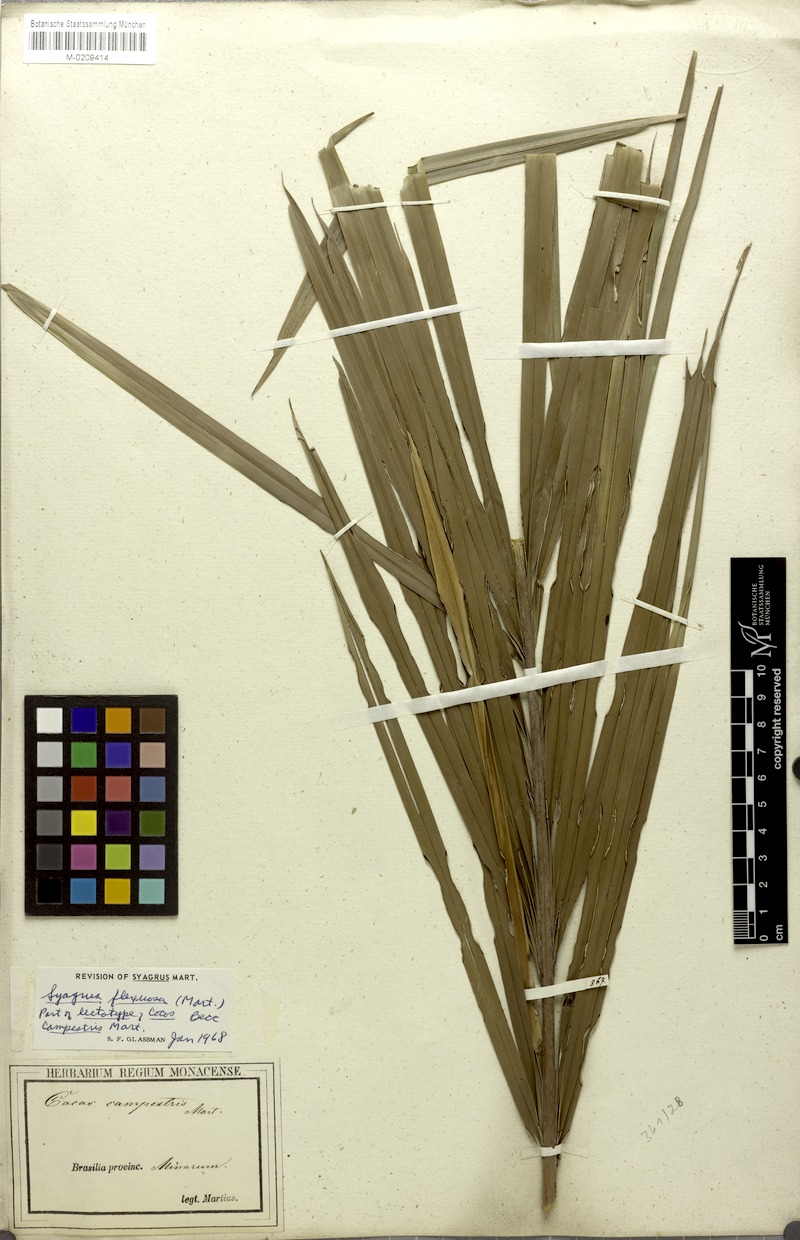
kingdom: Plantae
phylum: Tracheophyta
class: Liliopsida
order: Arecales
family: Arecaceae
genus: Syagrus
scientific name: Syagrus campestris
